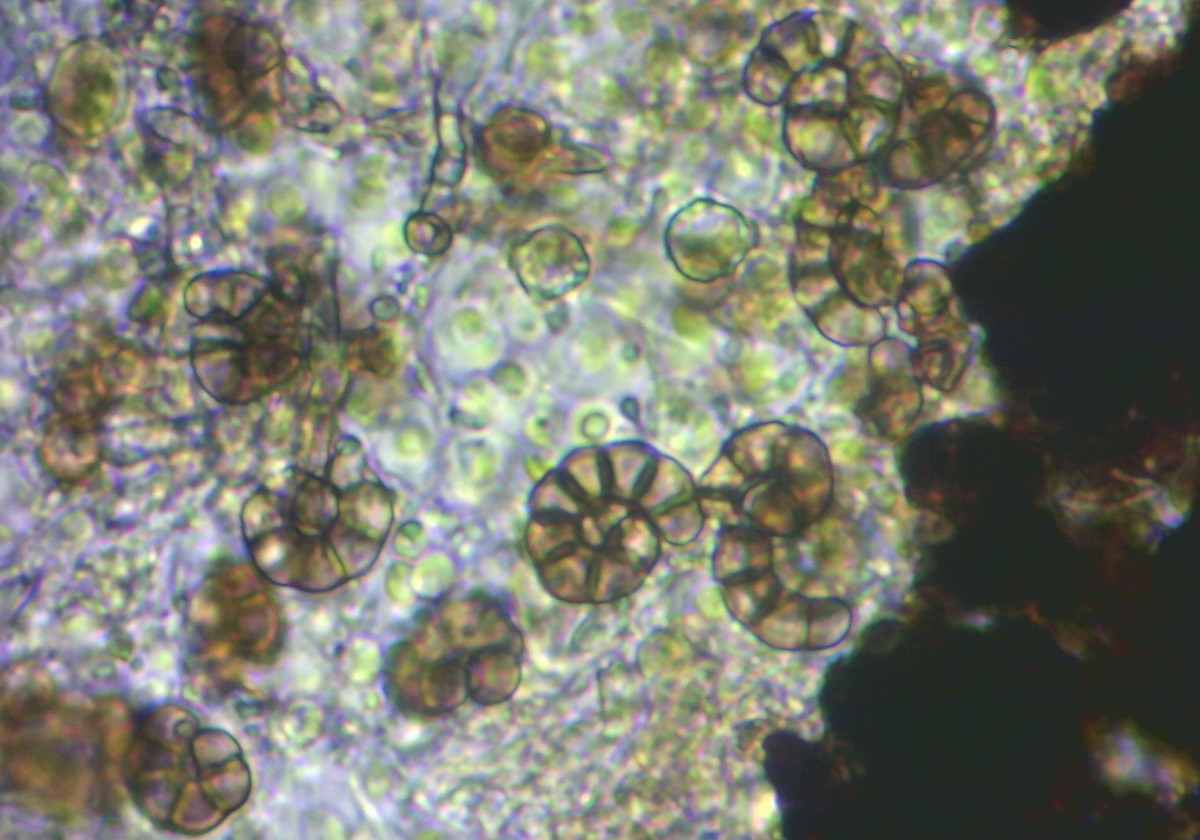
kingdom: Fungi
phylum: Ascomycota
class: Sordariomycetes
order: Microascales
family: Halosphaeriaceae
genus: Cirrenalia
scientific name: Cirrenalia lignicola
